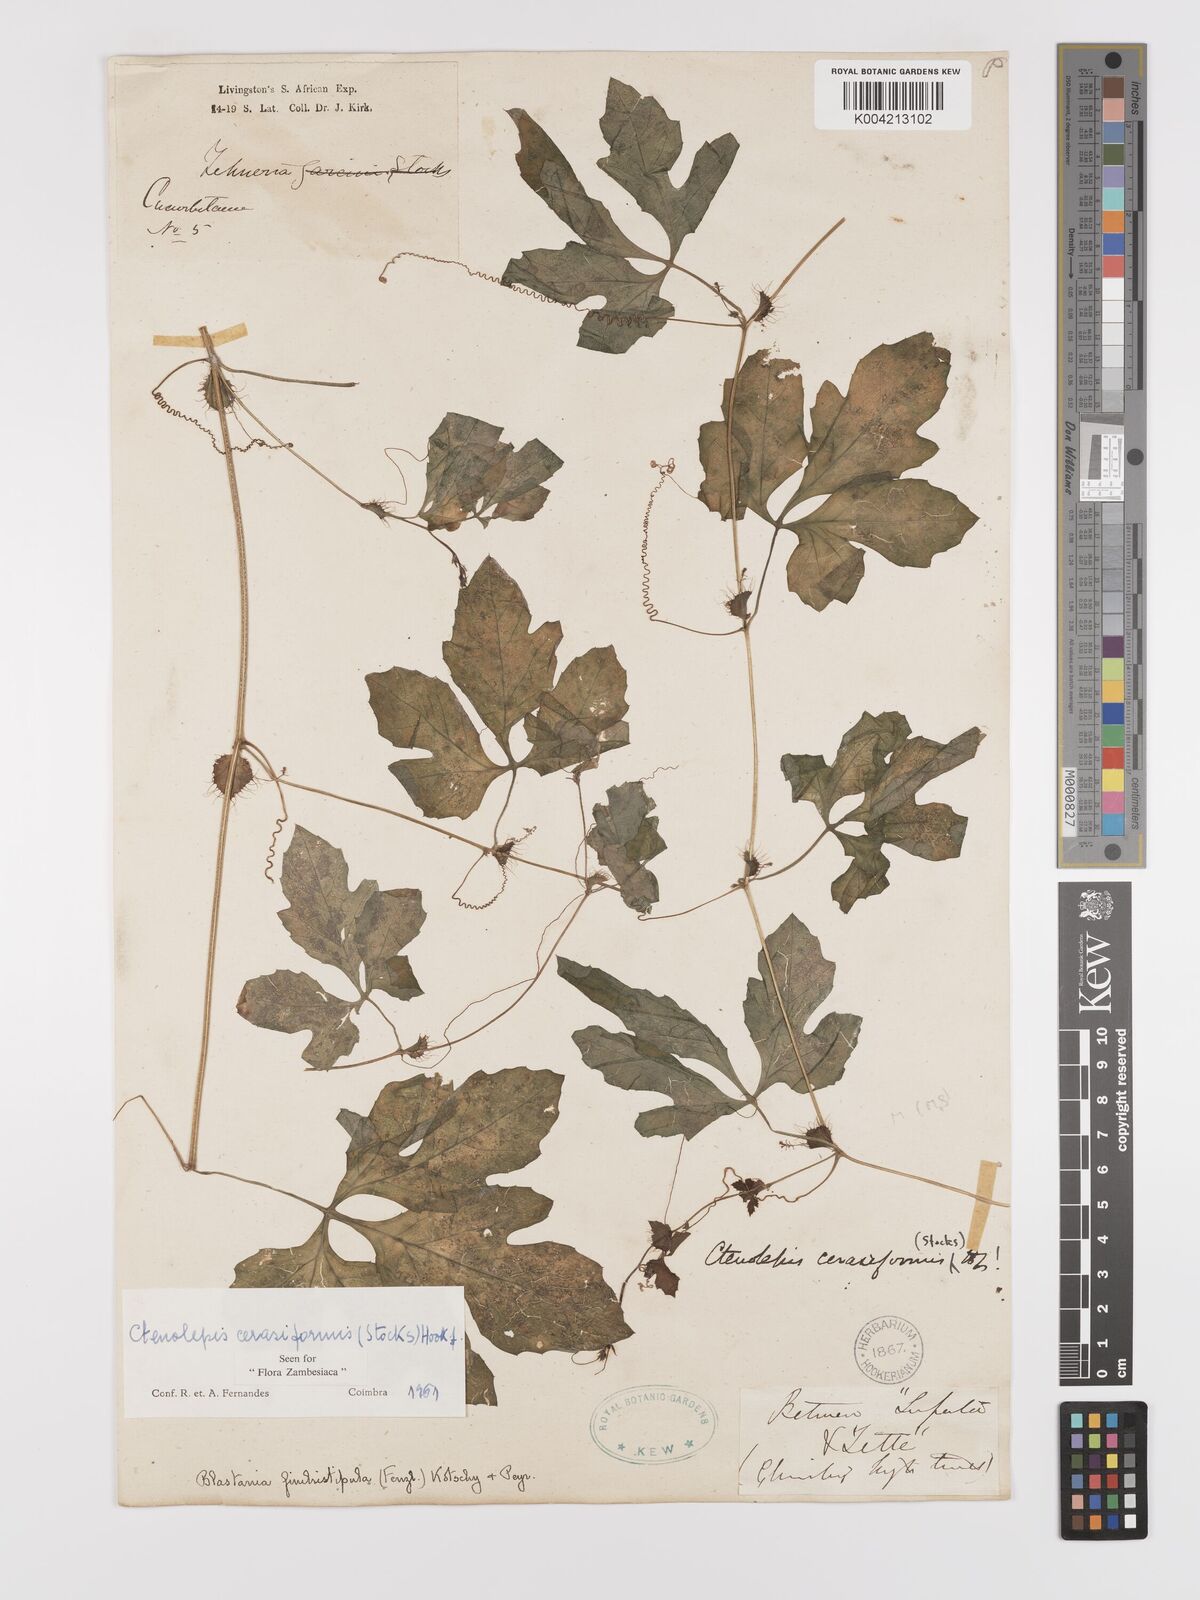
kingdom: Plantae
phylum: Tracheophyta
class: Magnoliopsida
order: Cucurbitales
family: Cucurbitaceae
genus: Blastania
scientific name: Blastania cerasiformis
